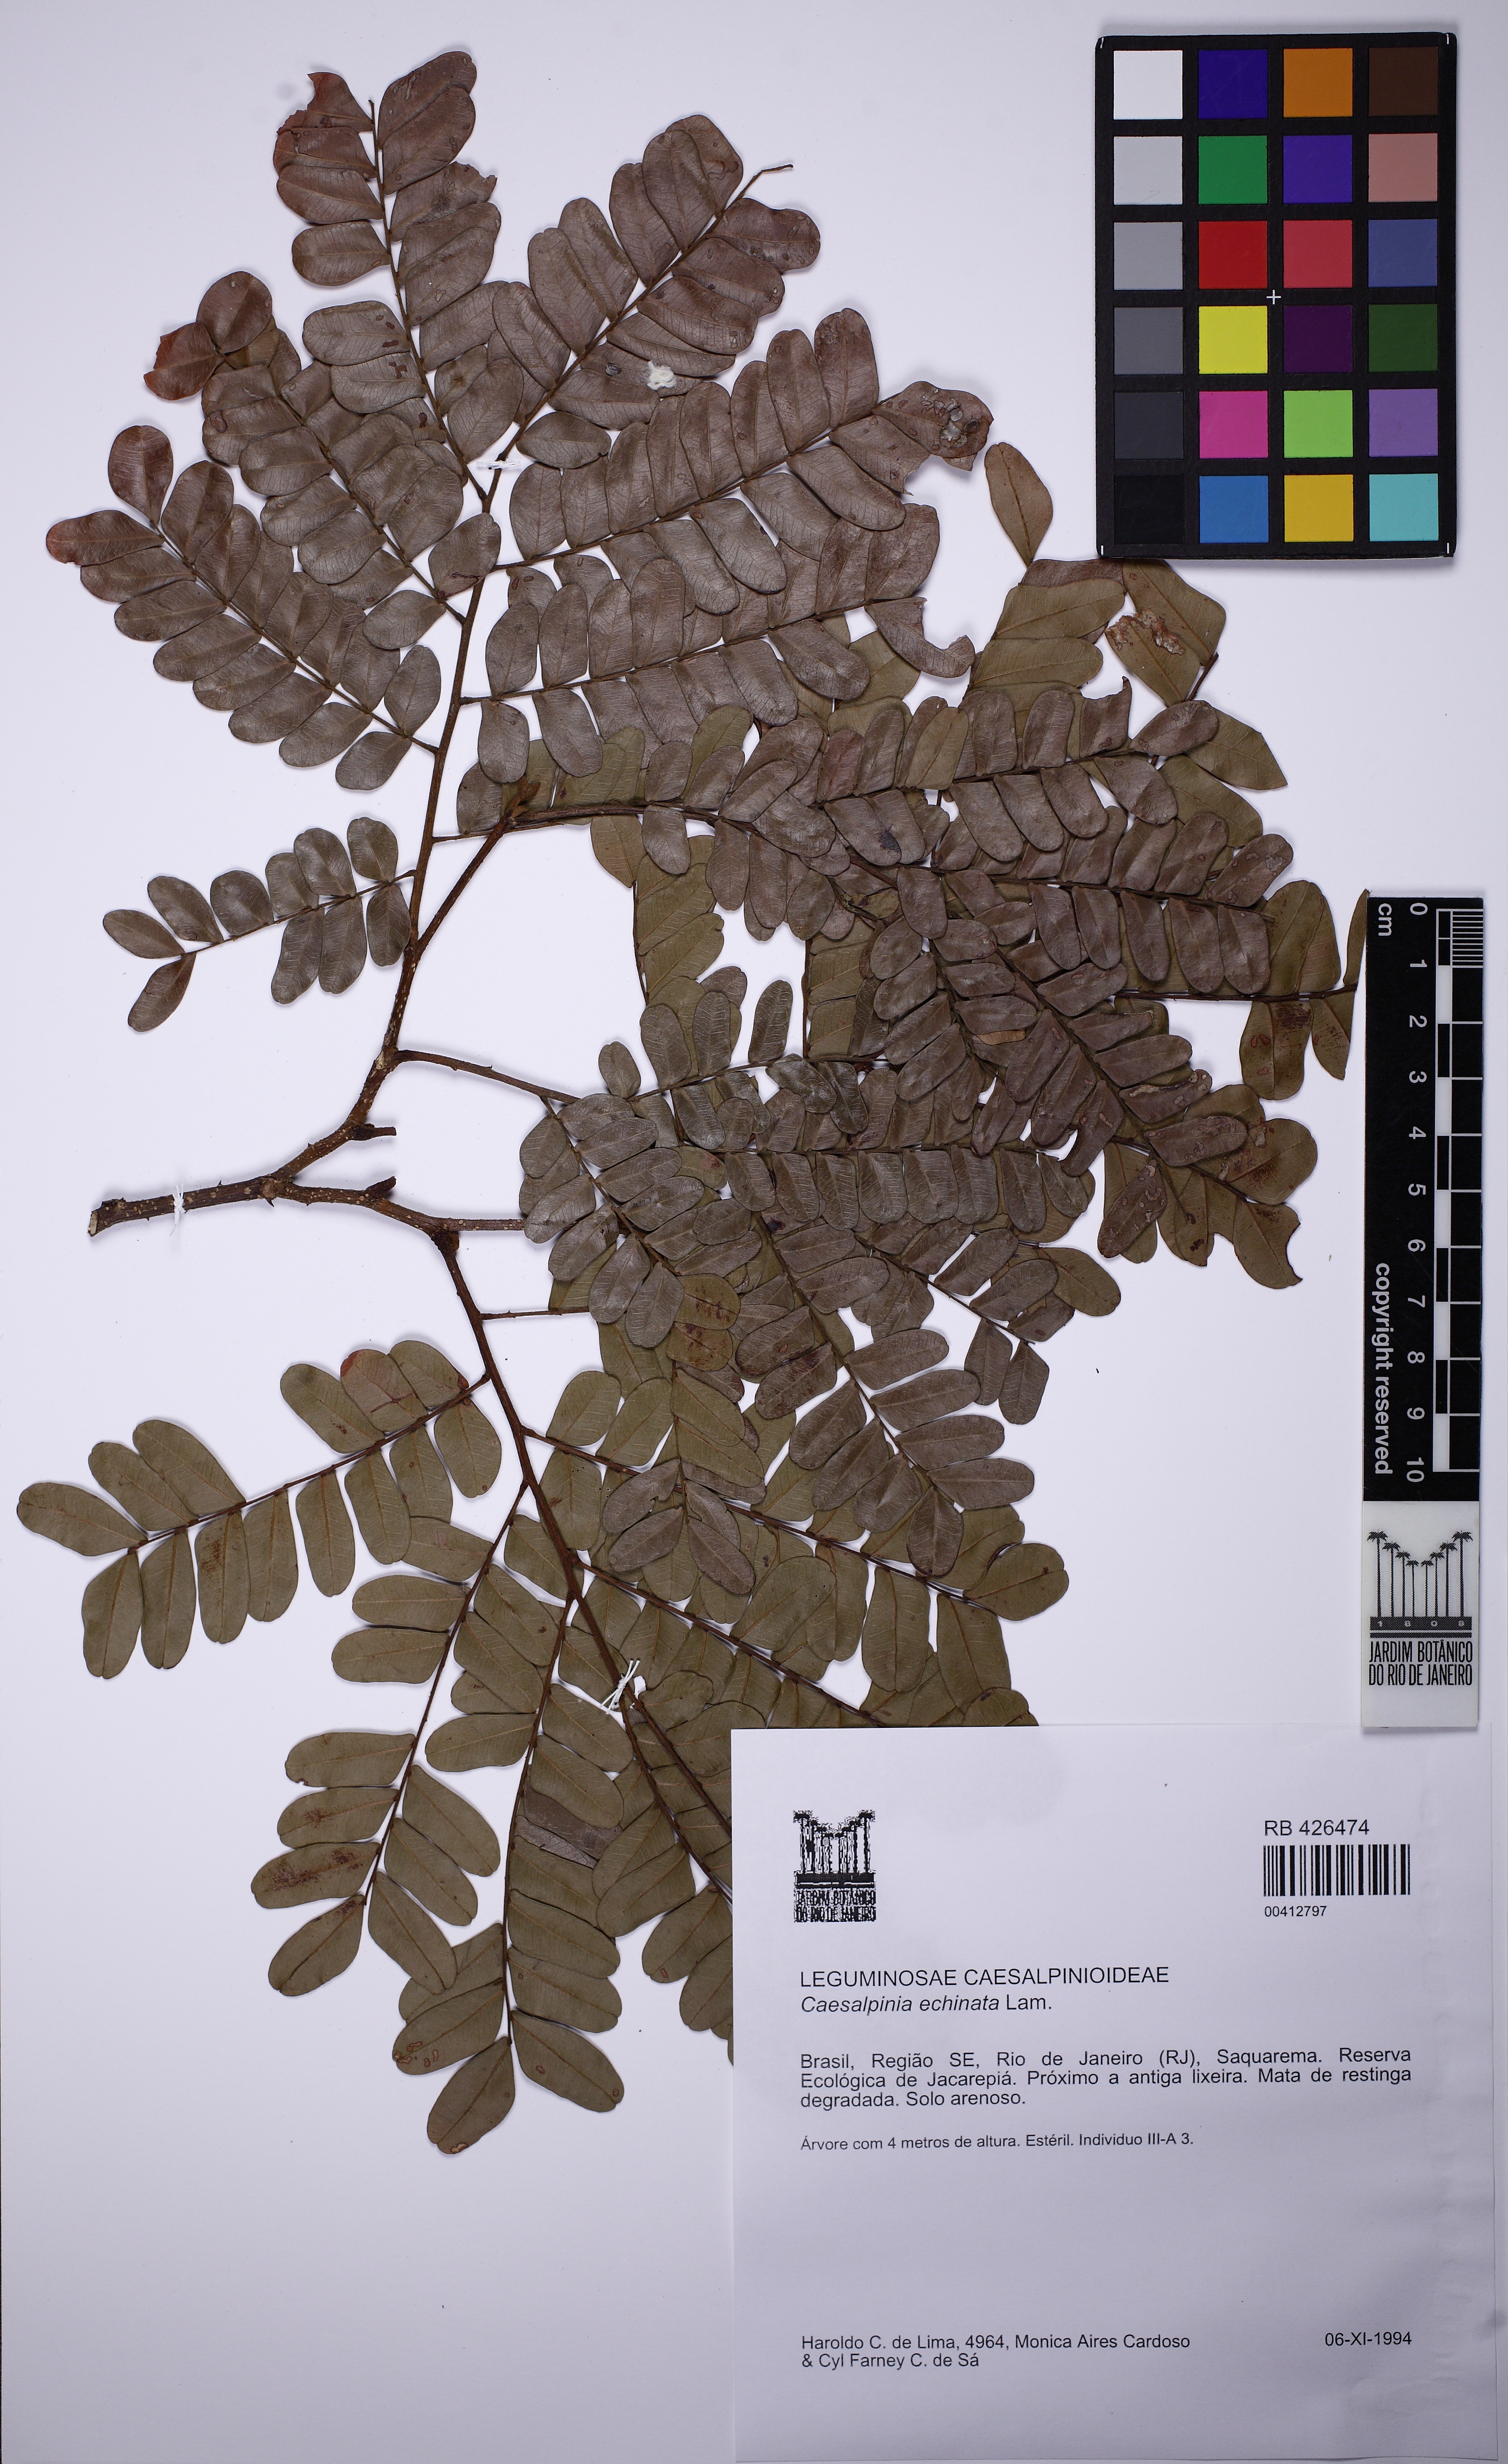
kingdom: Plantae
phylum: Tracheophyta
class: Magnoliopsida
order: Fabales
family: Fabaceae
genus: Paubrasilia
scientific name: Paubrasilia echinata
